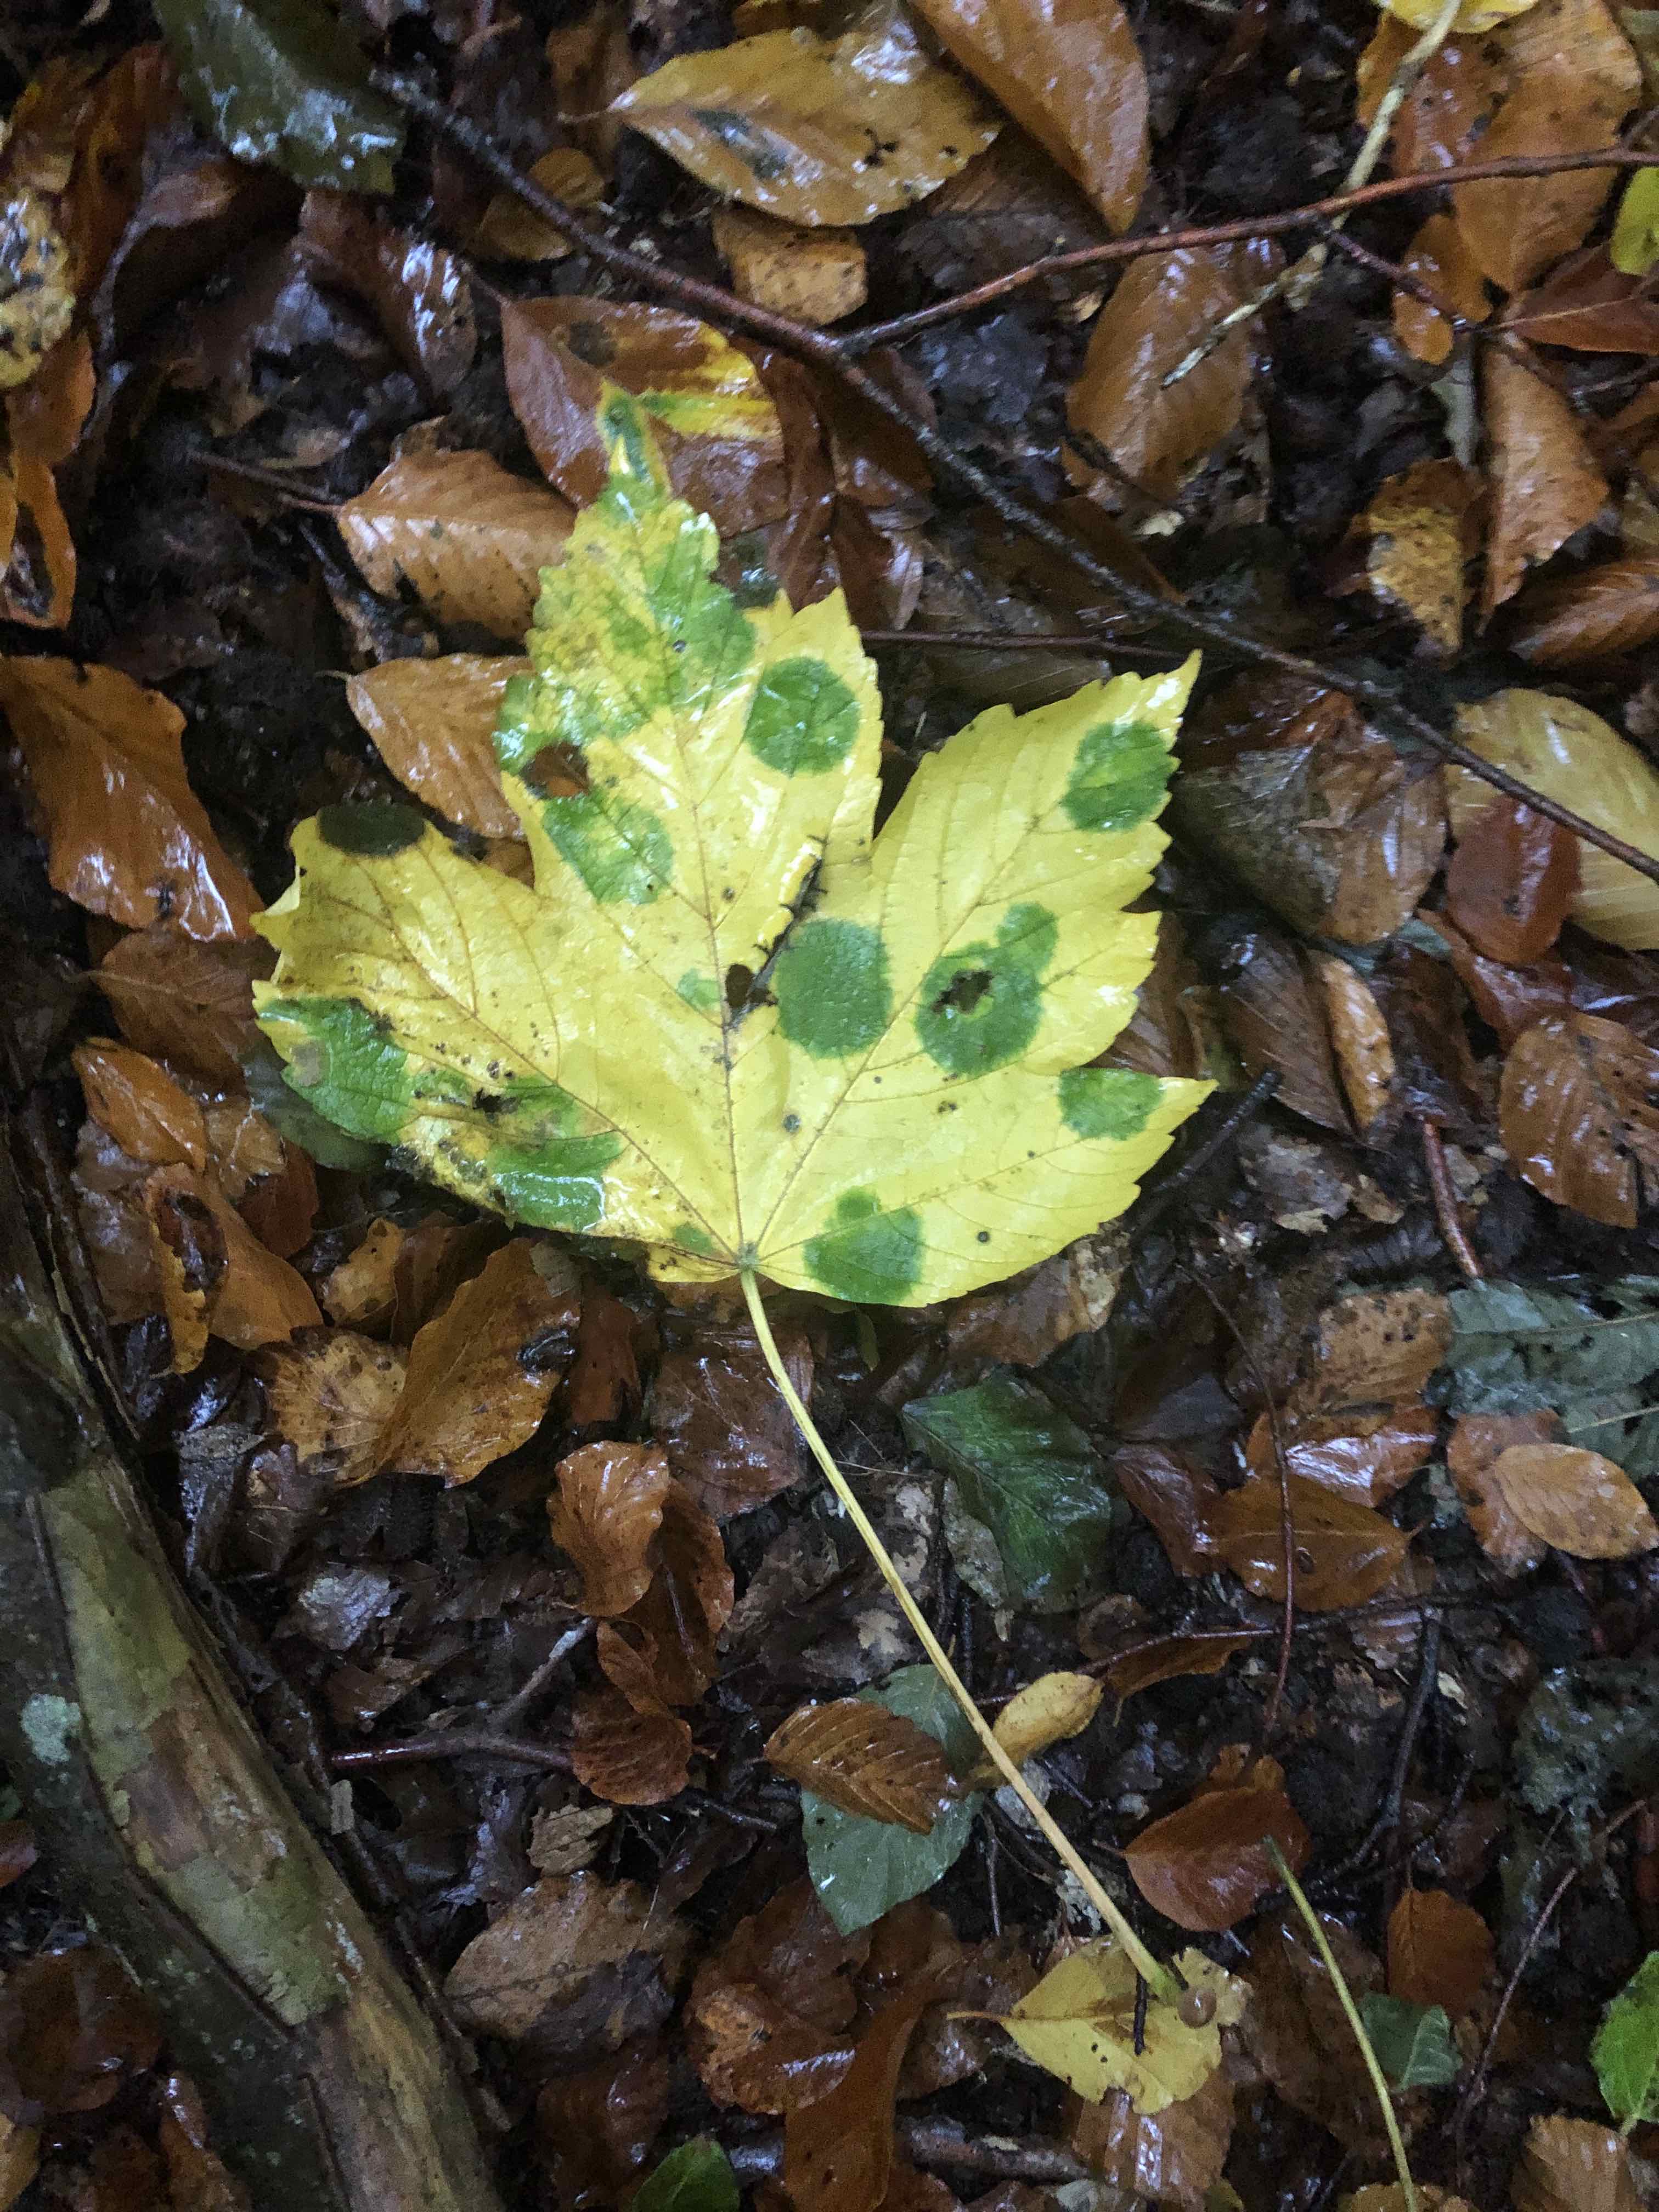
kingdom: Fungi
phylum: Ascomycota
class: Leotiomycetes
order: Rhytismatales
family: Rhytismataceae
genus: Rhytisma
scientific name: Rhytisma acerinum
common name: ahorn-rynkeplet
